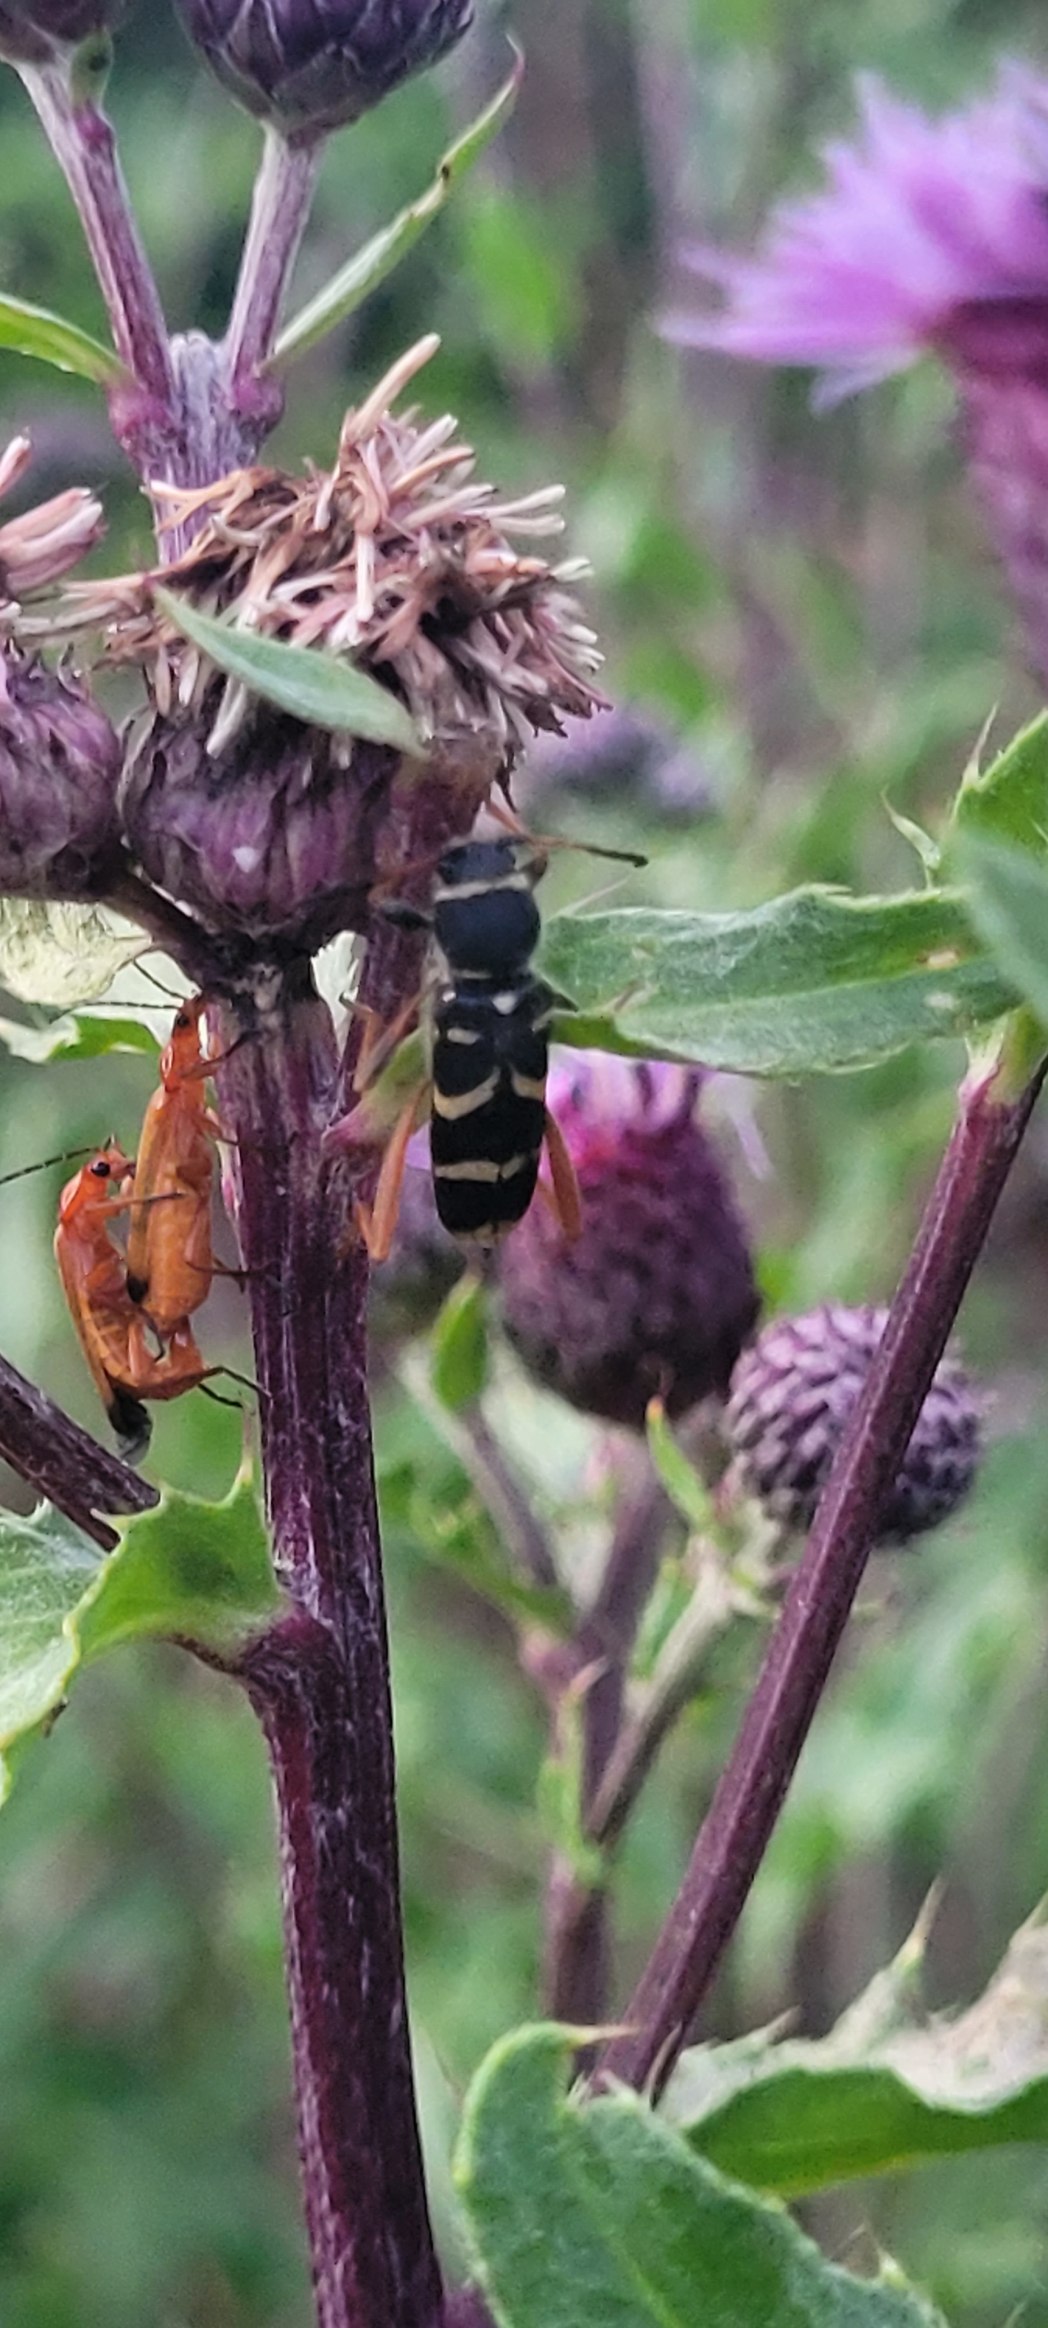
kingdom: Animalia
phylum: Arthropoda
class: Insecta
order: Coleoptera
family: Cerambycidae
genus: Clytus
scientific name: Clytus arietis
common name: Lille hvepsebuk
